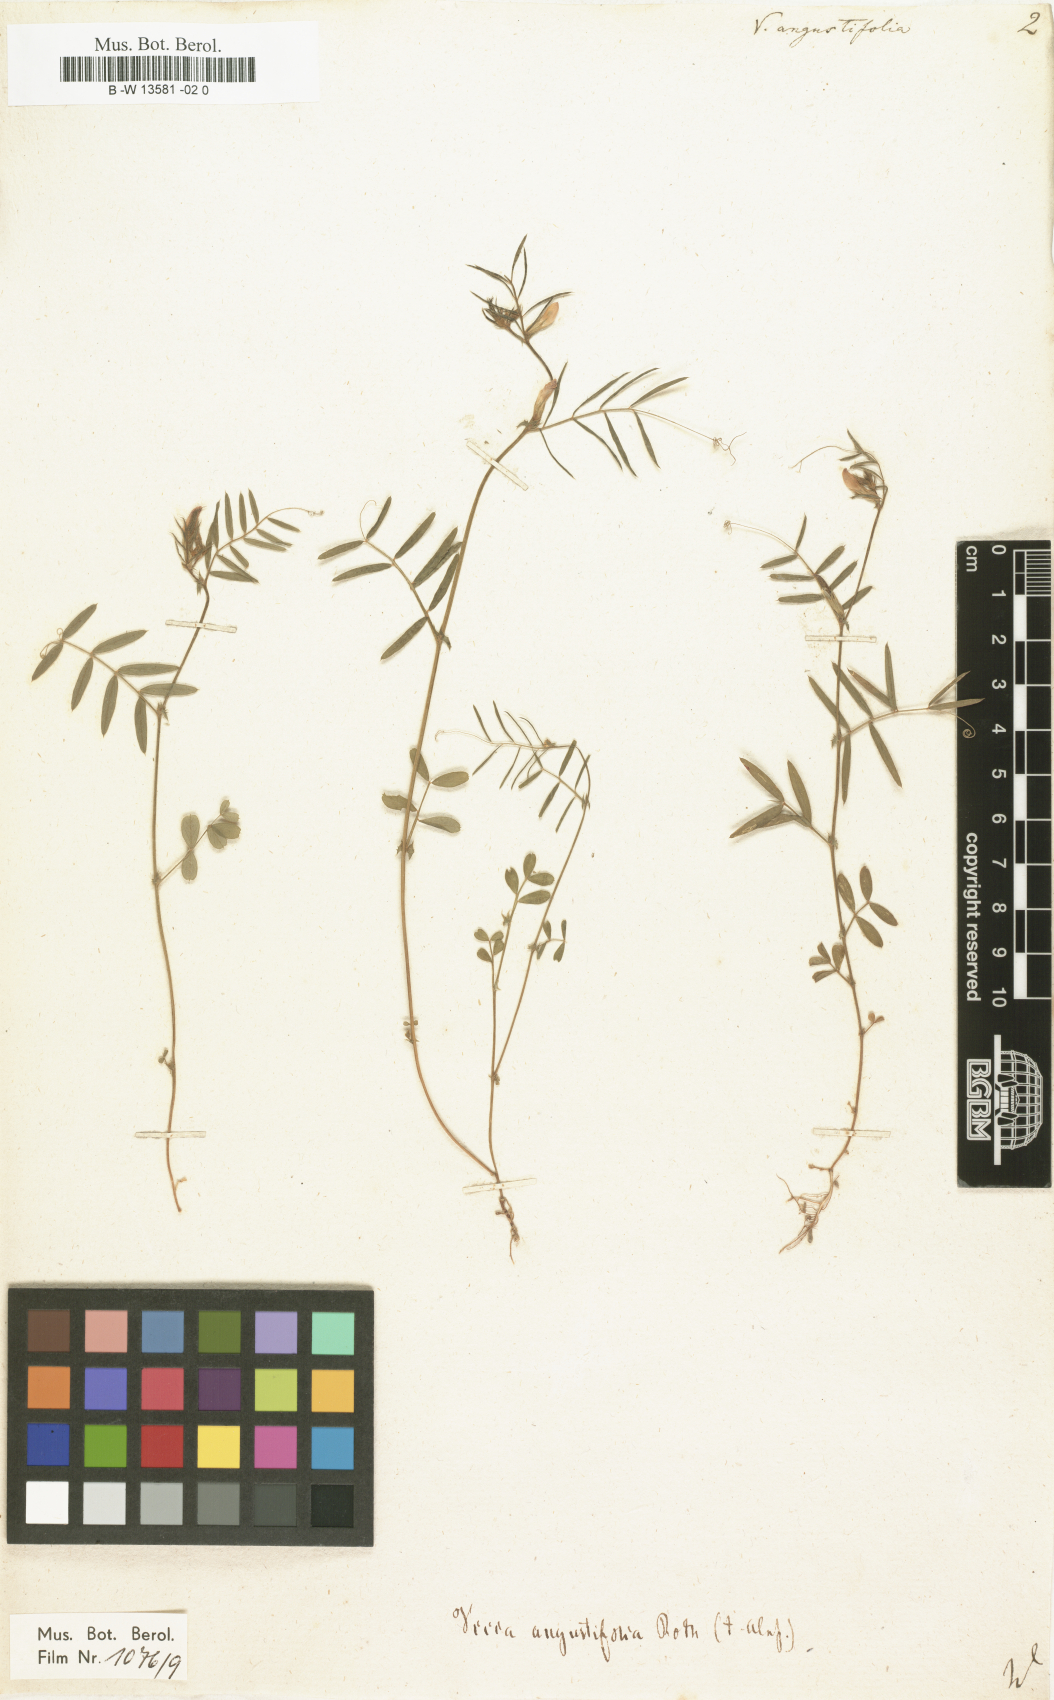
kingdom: Plantae
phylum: Tracheophyta
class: Magnoliopsida
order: Fabales
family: Fabaceae
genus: Vicia
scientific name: Vicia
